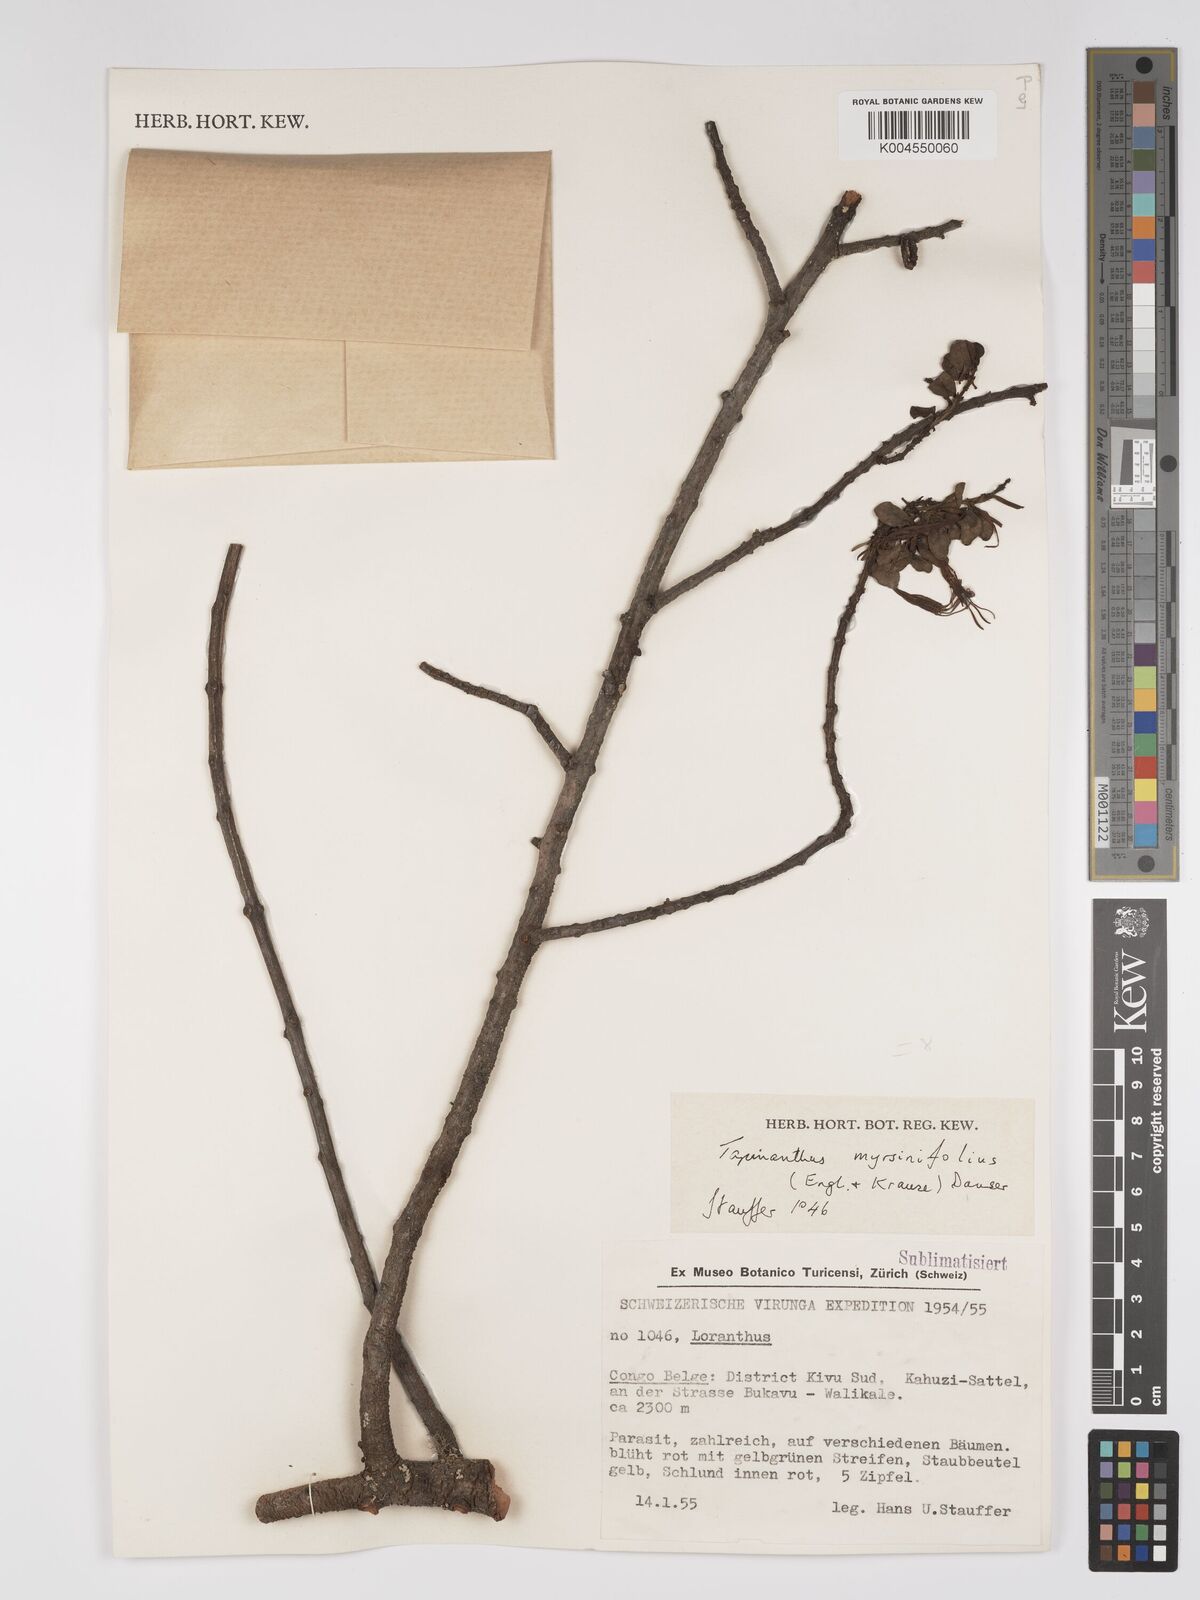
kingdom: Plantae
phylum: Tracheophyta
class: Magnoliopsida
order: Santalales
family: Loranthaceae
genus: Agelanthus
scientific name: Agelanthus myrsinifolius
